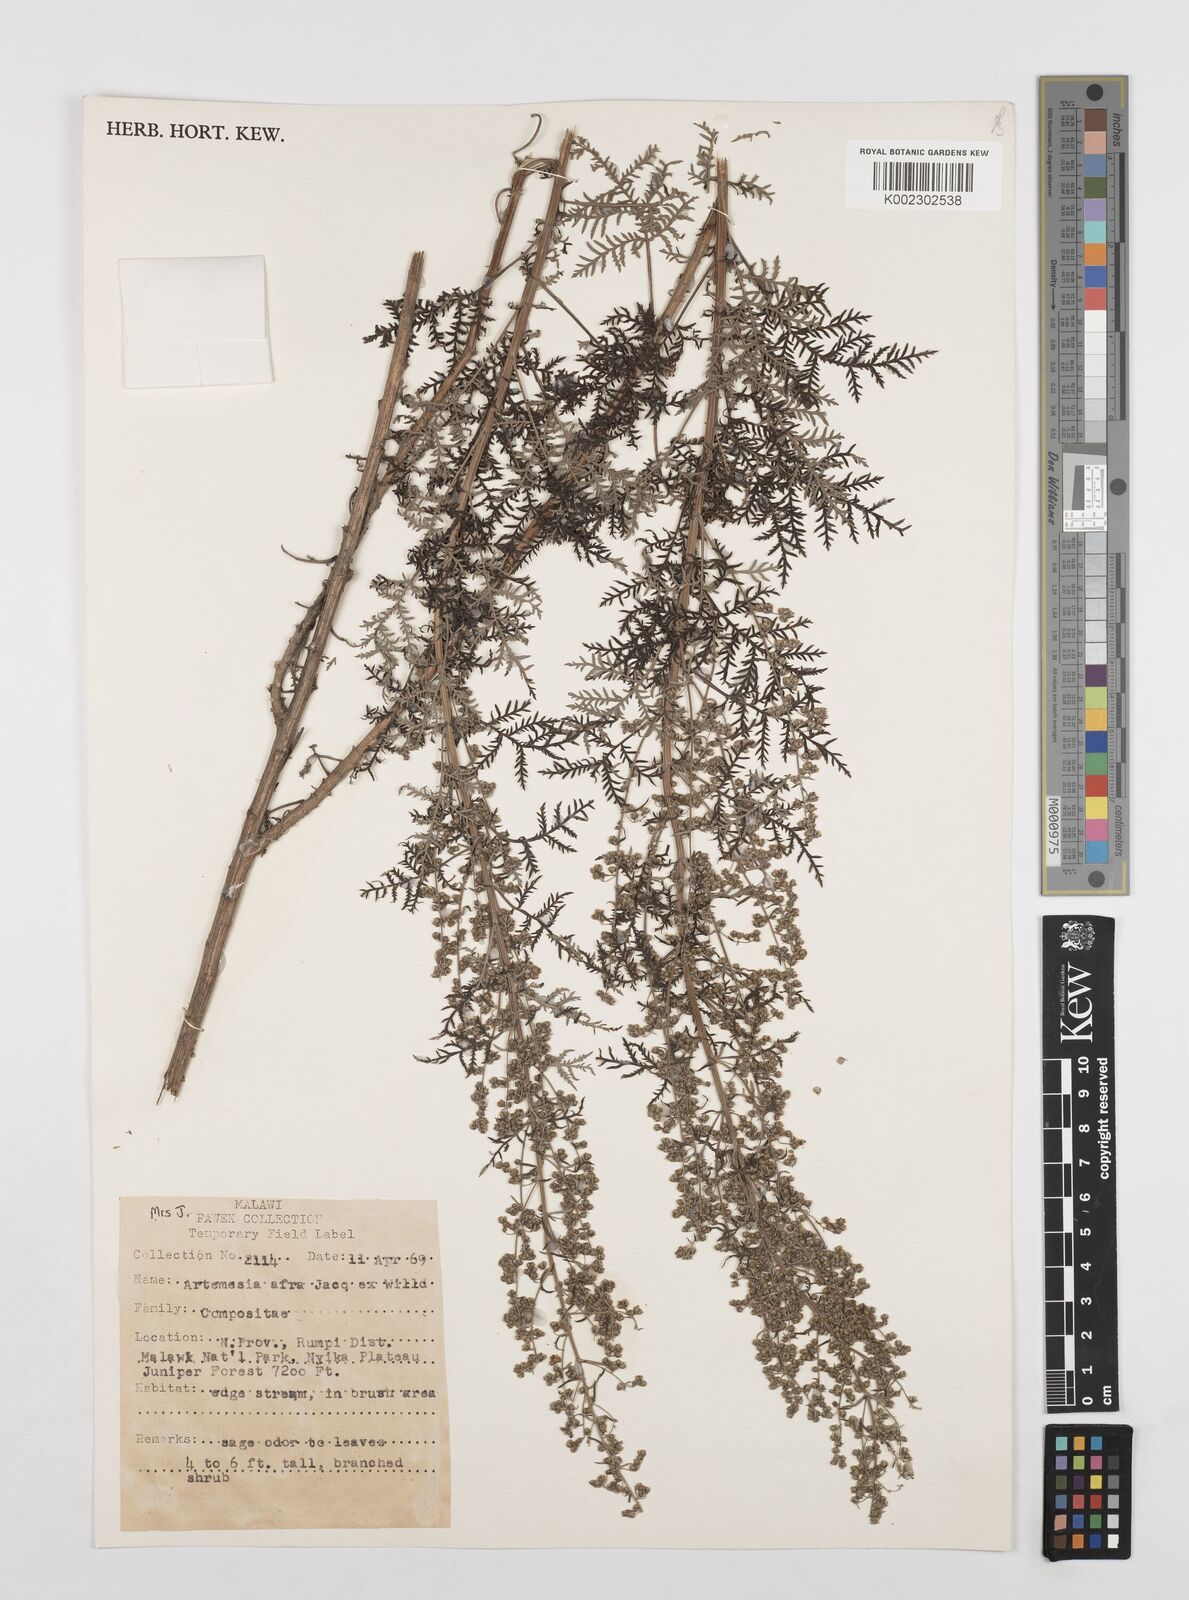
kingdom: Plantae
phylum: Tracheophyta
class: Magnoliopsida
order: Asterales
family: Asteraceae
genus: Artemisia
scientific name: Artemisia afra
